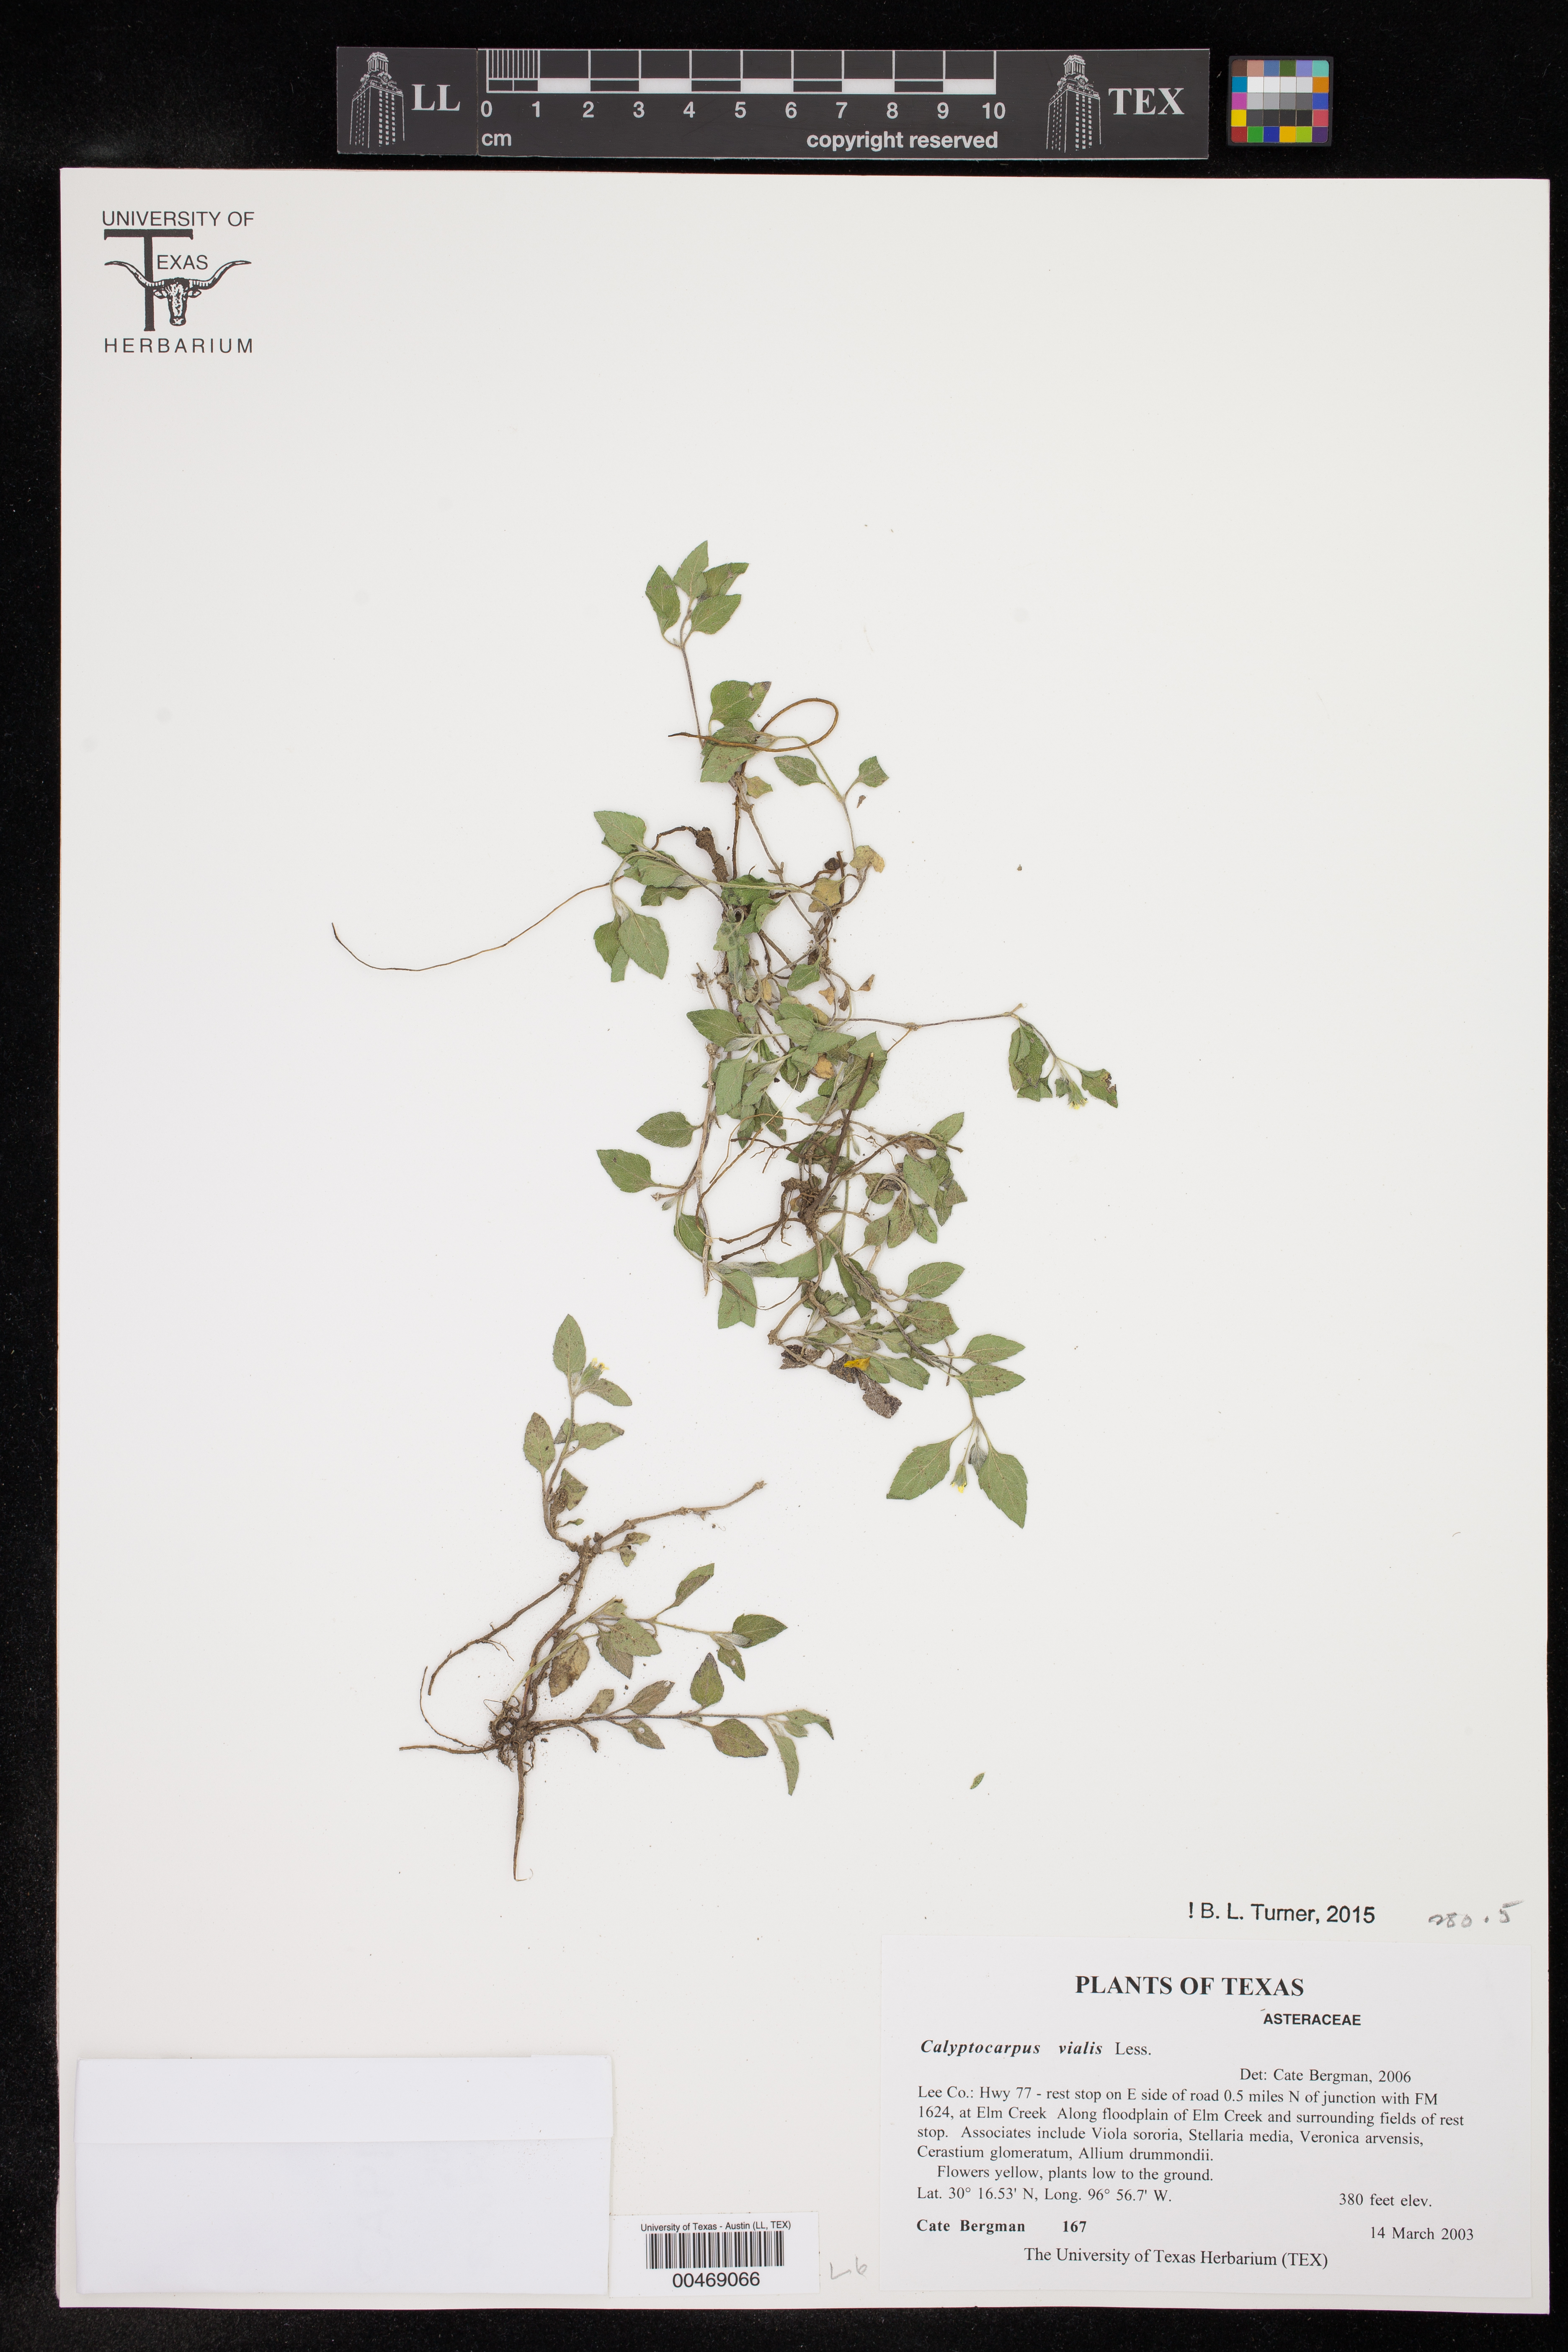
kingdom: Plantae
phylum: Tracheophyta
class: Magnoliopsida
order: Asterales
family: Asteraceae
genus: Calyptocarpus
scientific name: Calyptocarpus vialis
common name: Straggler daisy
